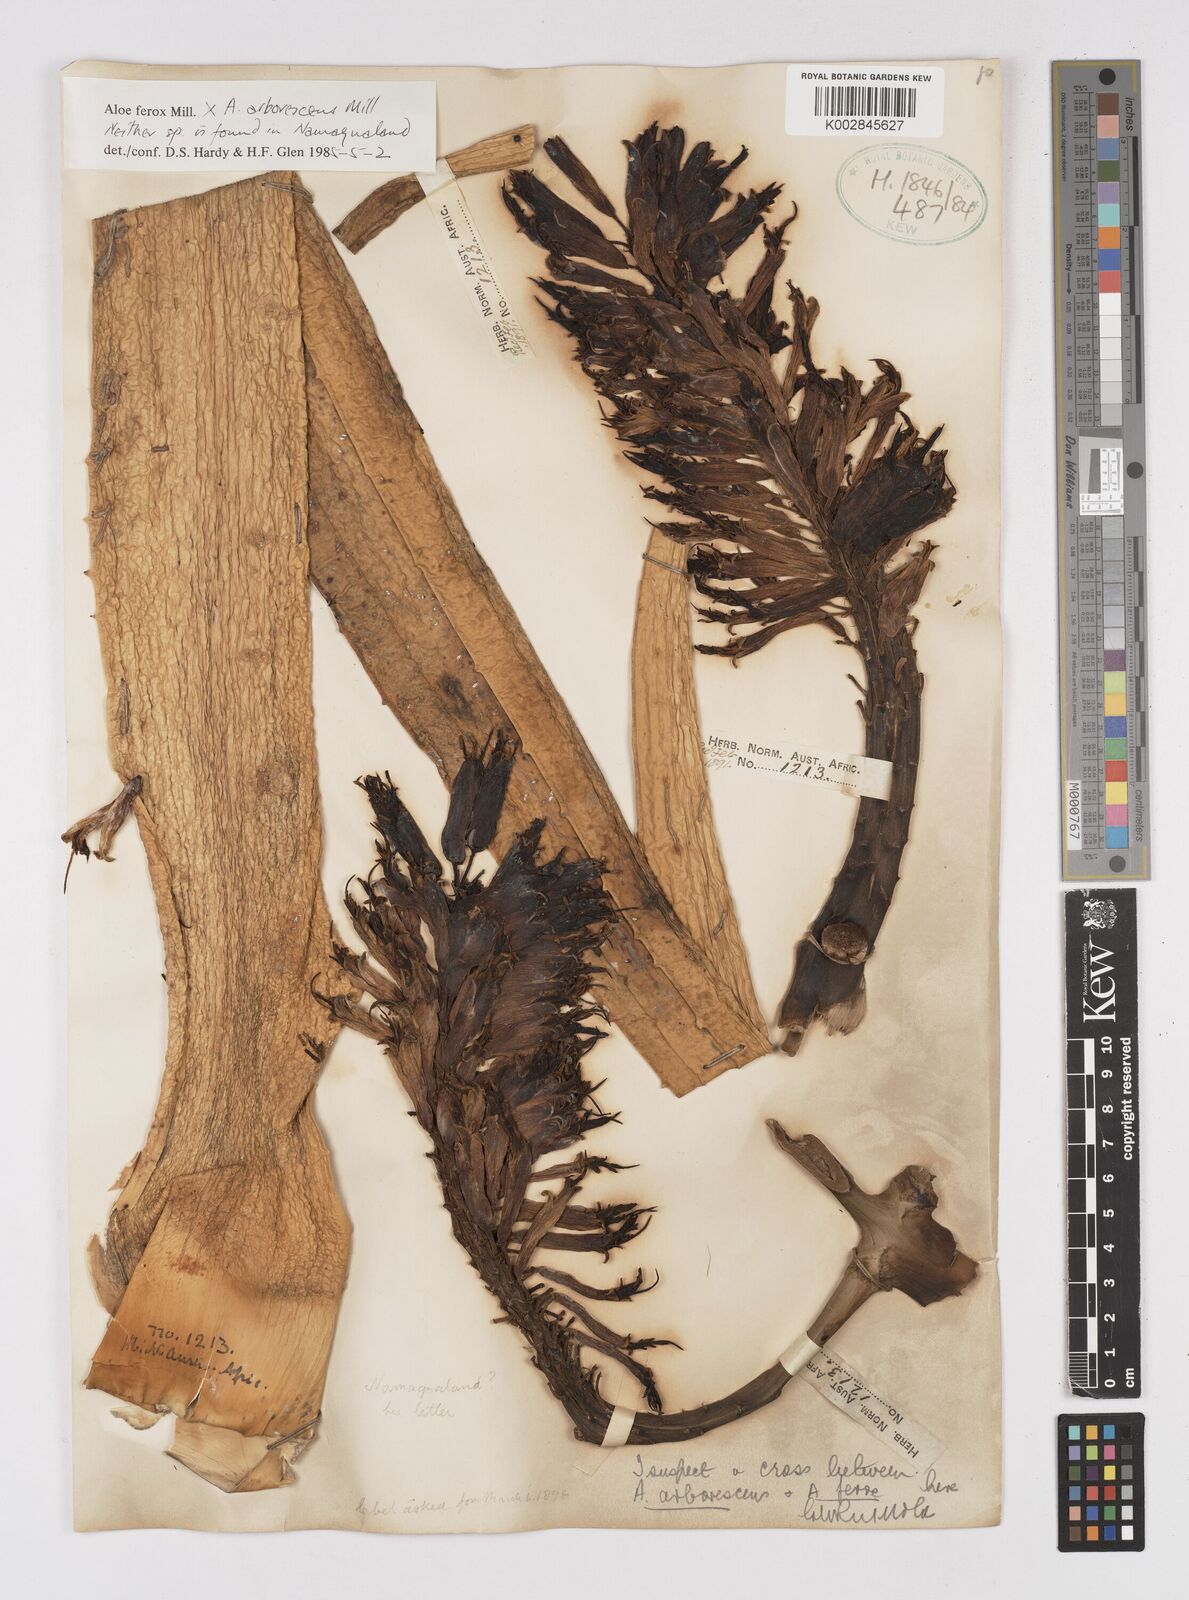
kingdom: Plantae
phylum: Tracheophyta
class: Liliopsida
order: Asparagales
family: Asphodelaceae
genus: Aloe
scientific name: Aloe ferox
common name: Bitter aloe
